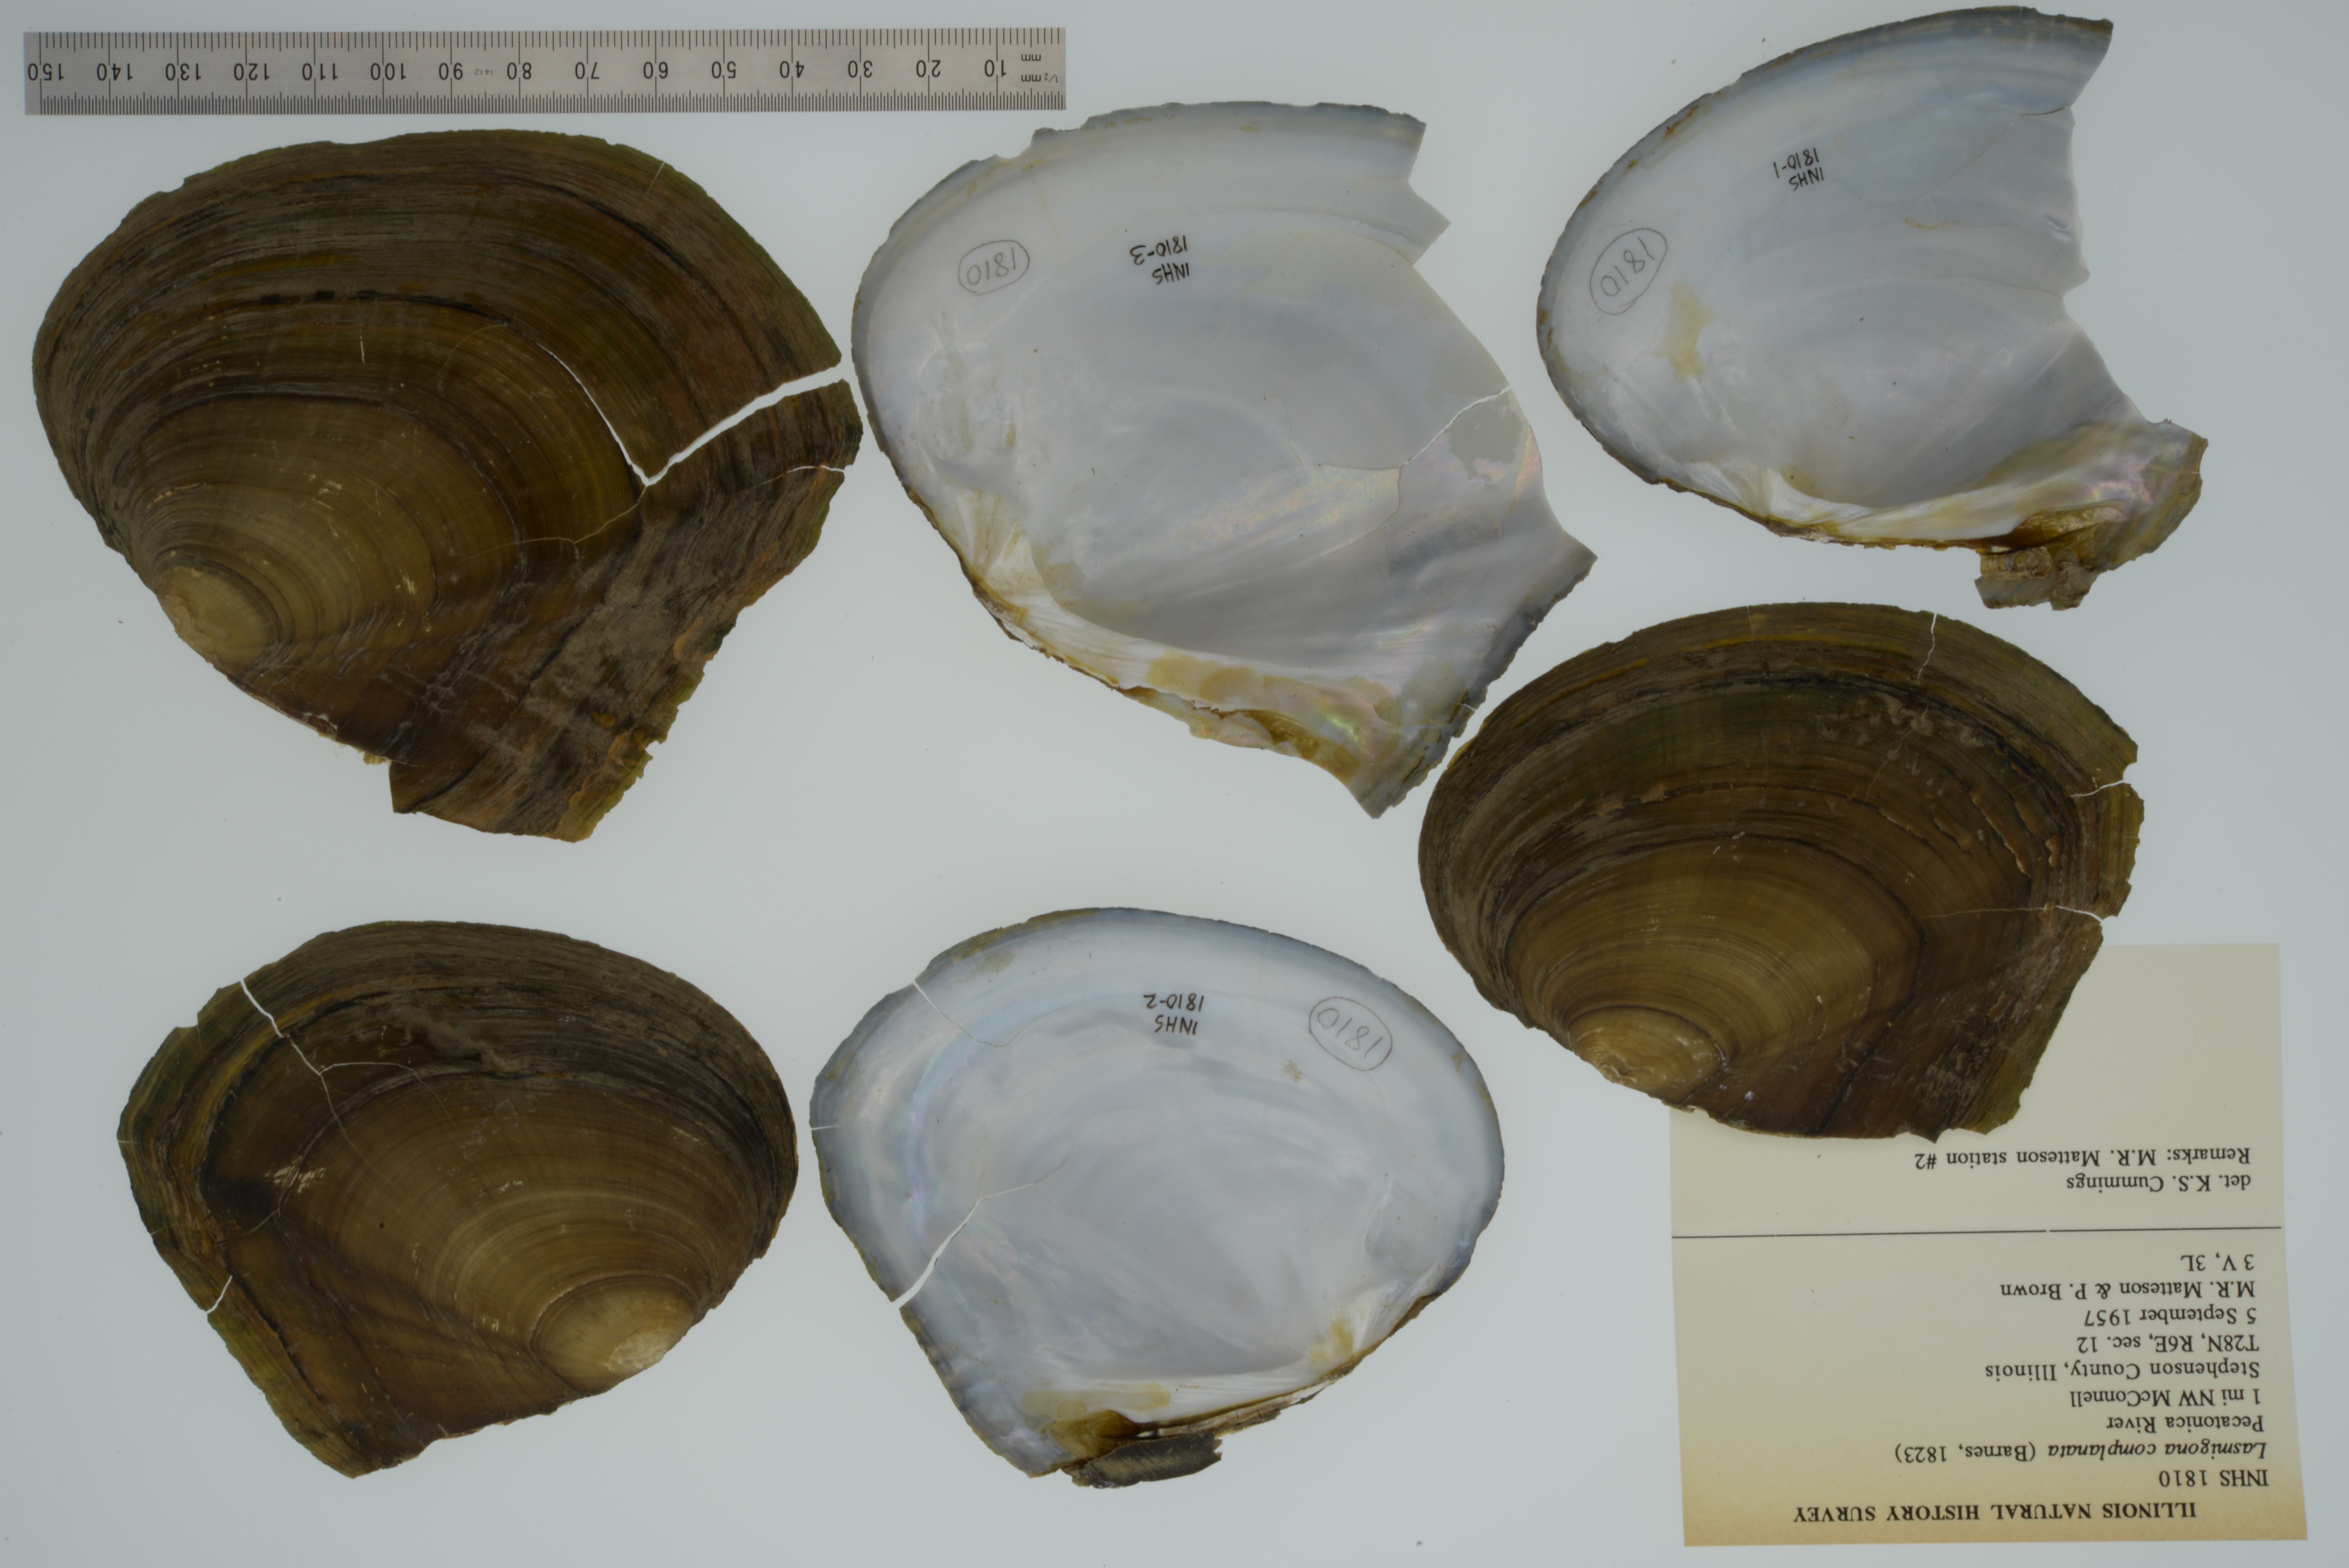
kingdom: Animalia
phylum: Mollusca
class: Bivalvia
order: Unionida
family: Unionidae
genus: Lasmigona
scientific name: Lasmigona complanata
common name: White heelsplitter
